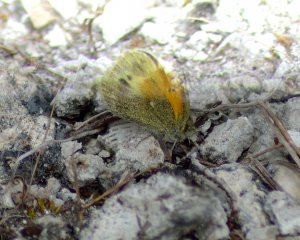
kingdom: Animalia
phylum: Arthropoda
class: Insecta
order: Lepidoptera
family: Pieridae
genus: Nathalis
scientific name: Nathalis iole
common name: Dainty Sulphur
